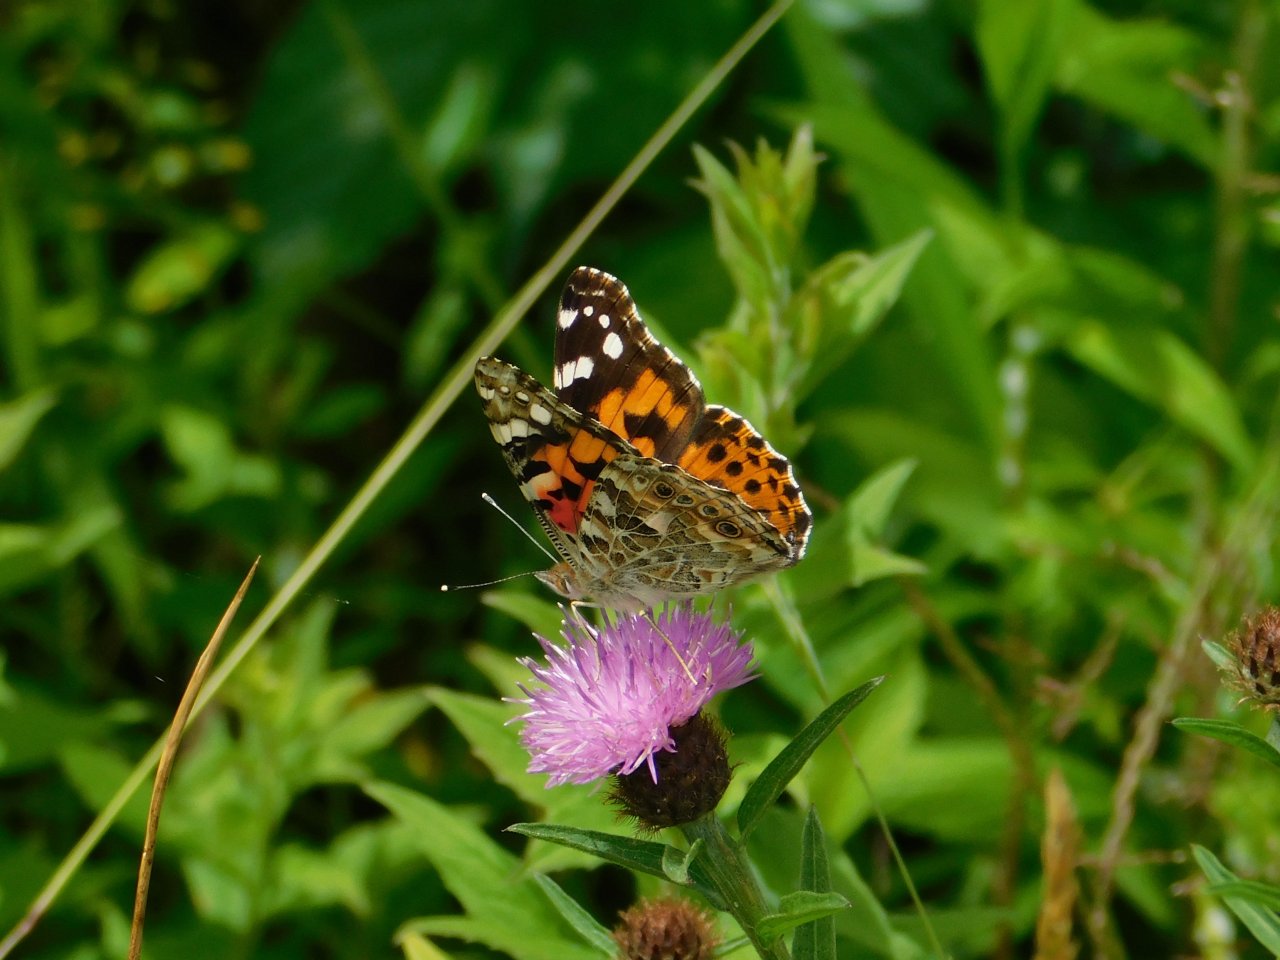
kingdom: Animalia
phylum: Arthropoda
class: Insecta
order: Lepidoptera
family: Nymphalidae
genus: Vanessa
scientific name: Vanessa cardui
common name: Painted Lady
